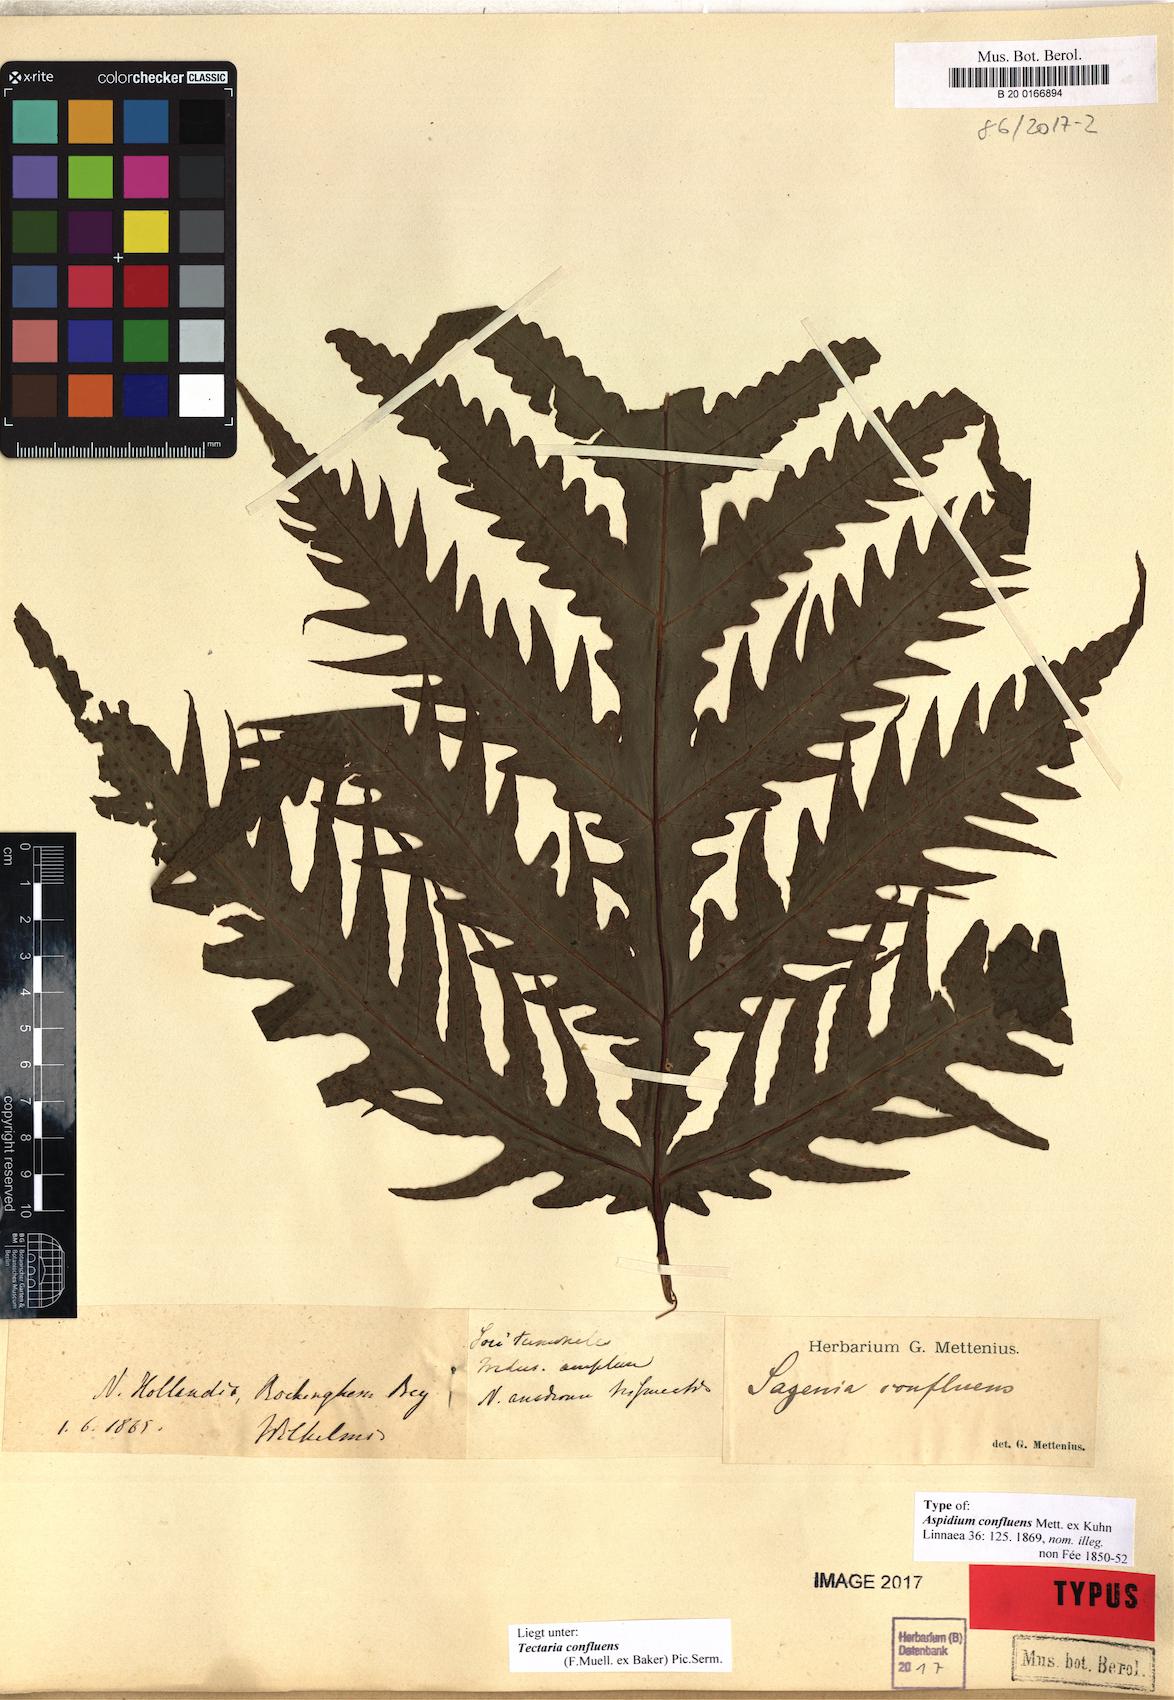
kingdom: Plantae
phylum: Tracheophyta
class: Polypodiopsida
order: Polypodiales
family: Tectariaceae
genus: Tectaria
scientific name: Tectaria confluens
